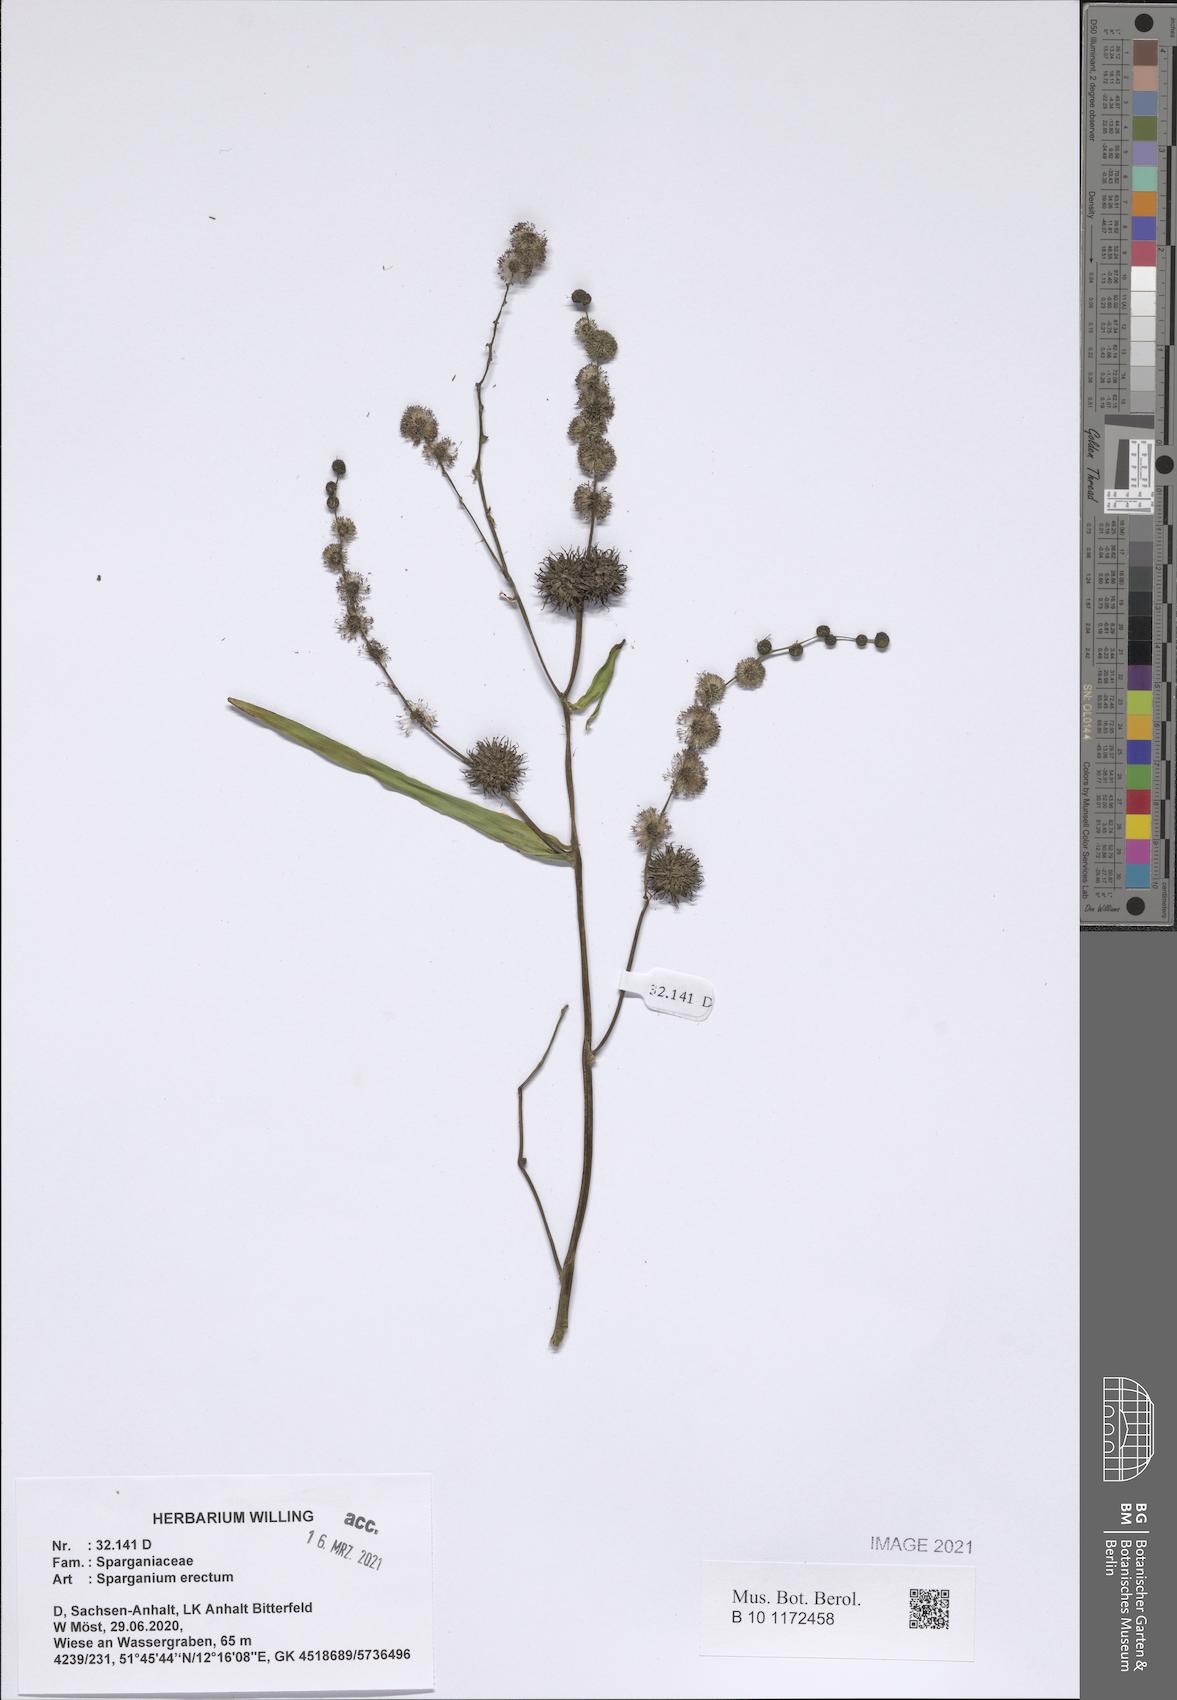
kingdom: Plantae
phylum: Tracheophyta
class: Liliopsida
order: Poales
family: Typhaceae
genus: Sparganium
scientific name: Sparganium erectum
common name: Branched bur-reed
